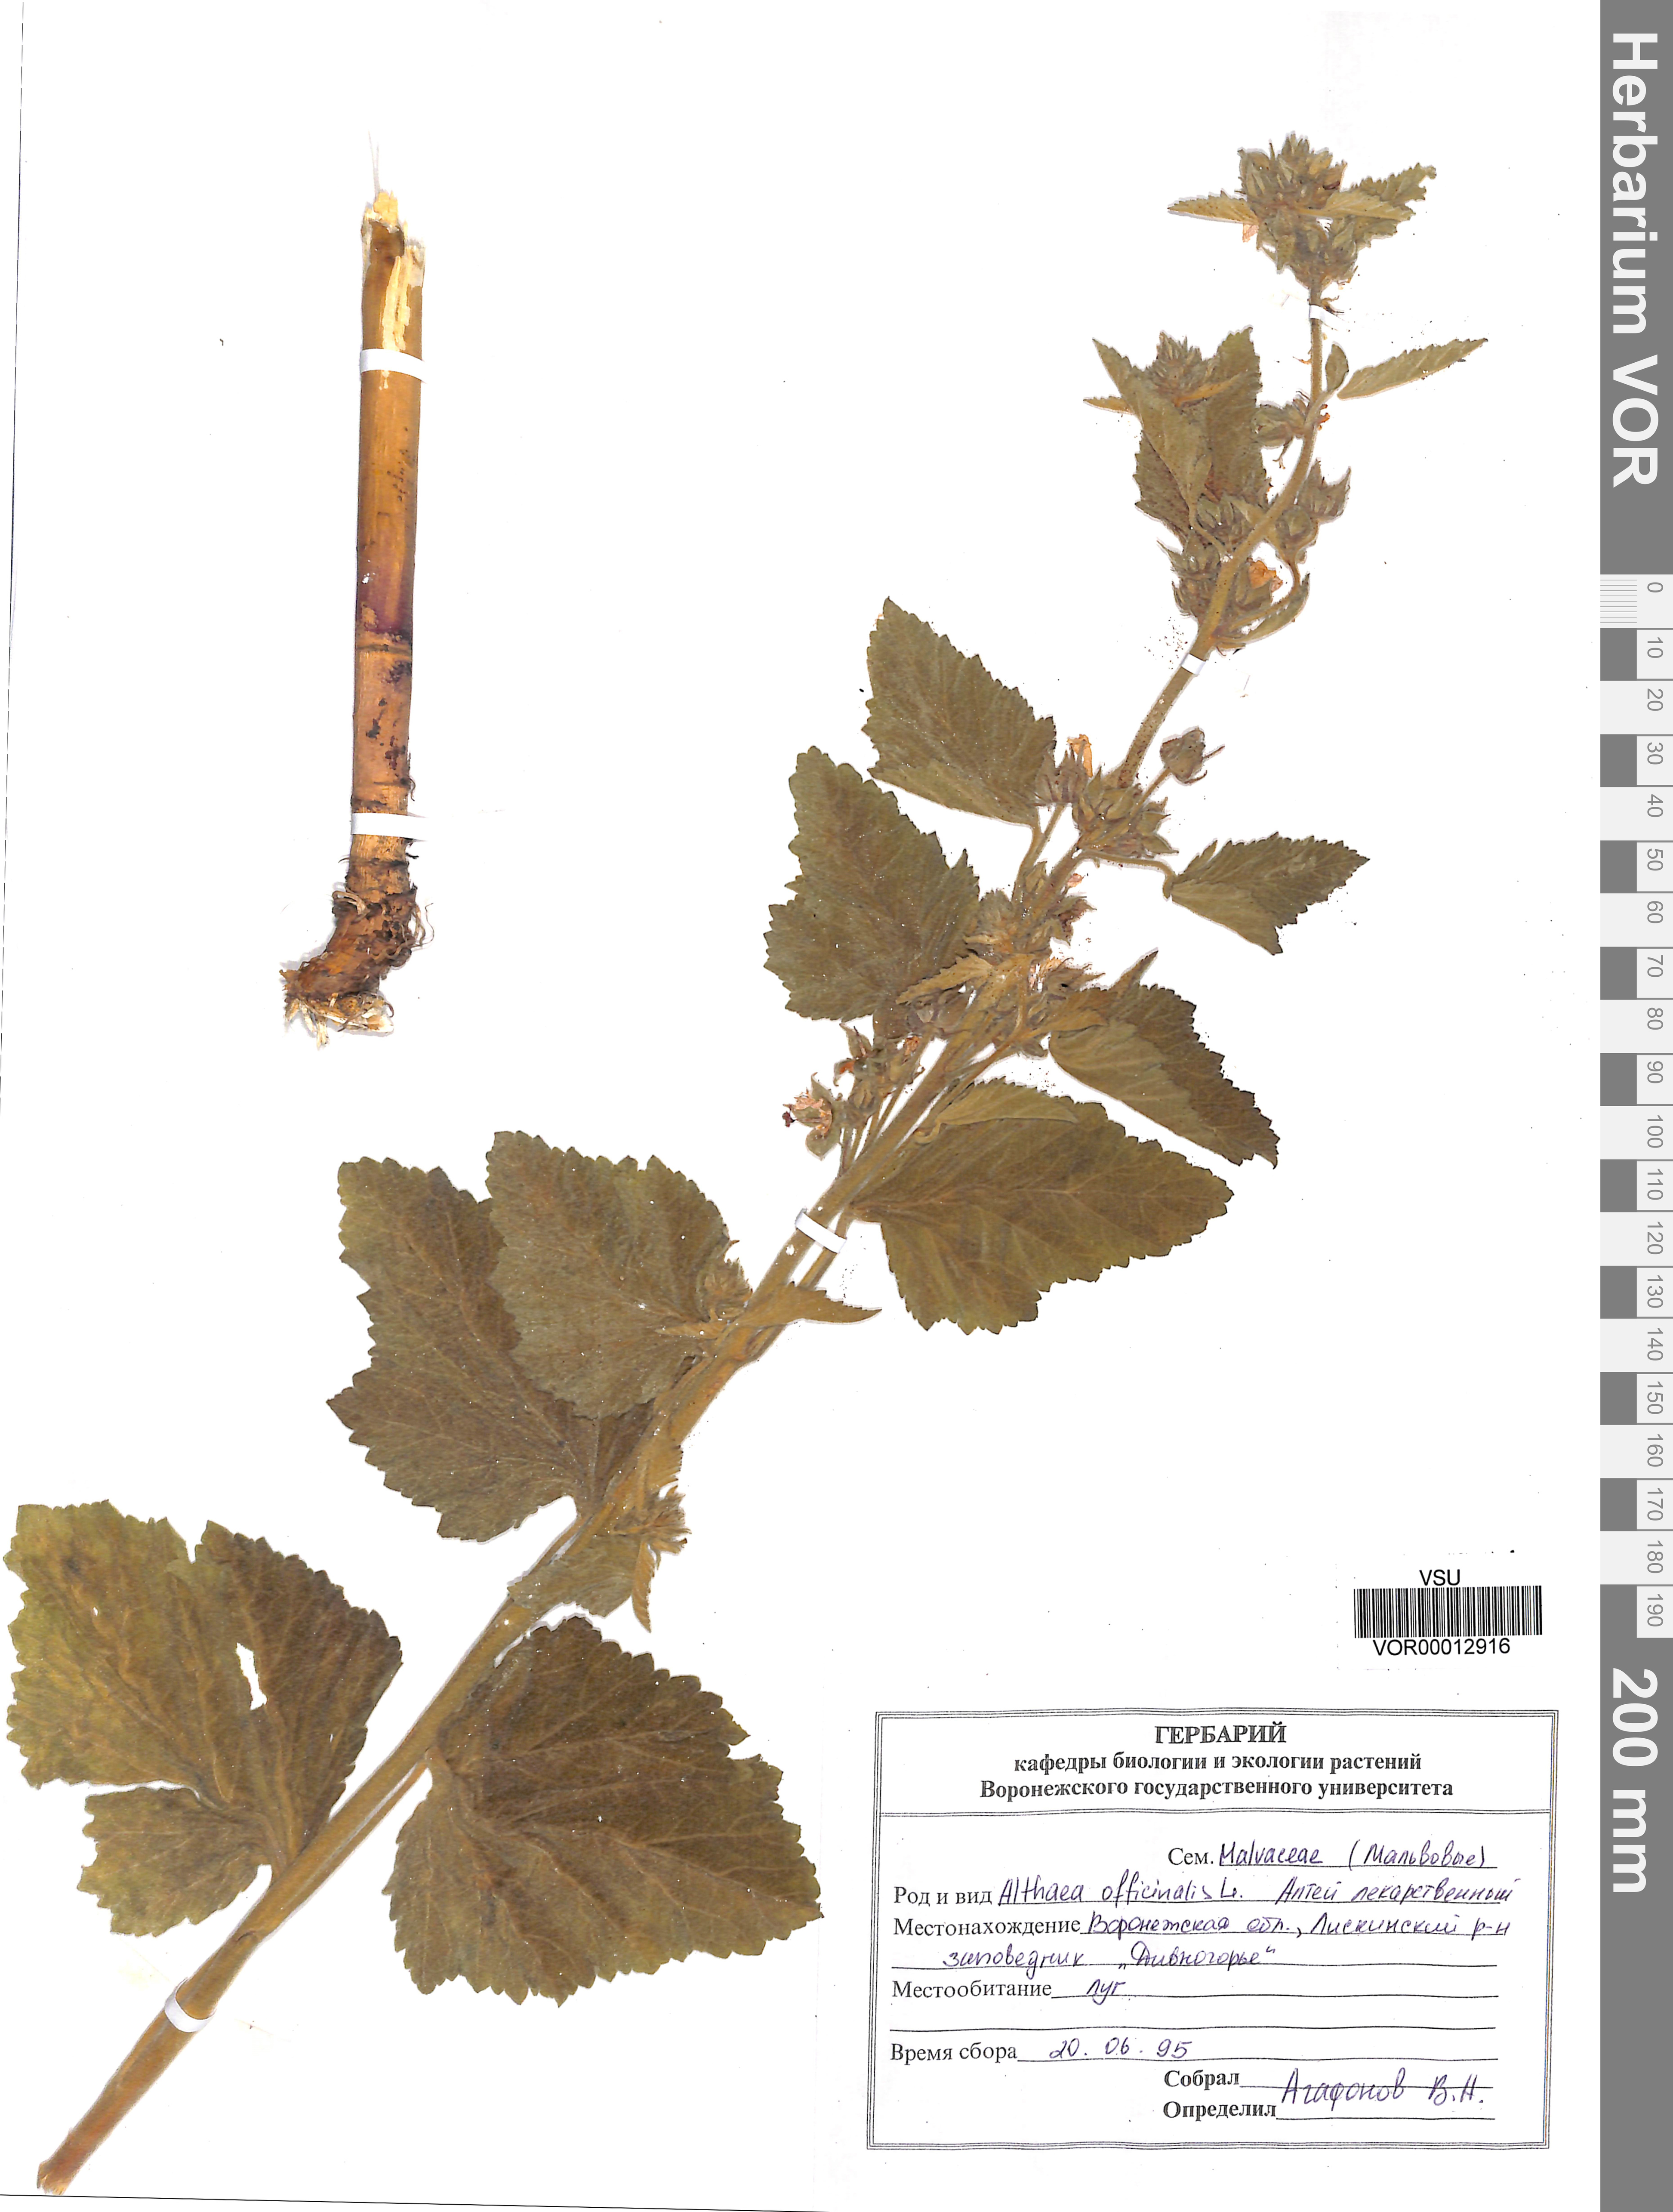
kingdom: Plantae
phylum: Tracheophyta
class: Magnoliopsida
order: Malvales
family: Malvaceae
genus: Althaea
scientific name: Althaea cannabina
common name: Palm-leaf marshmallow
